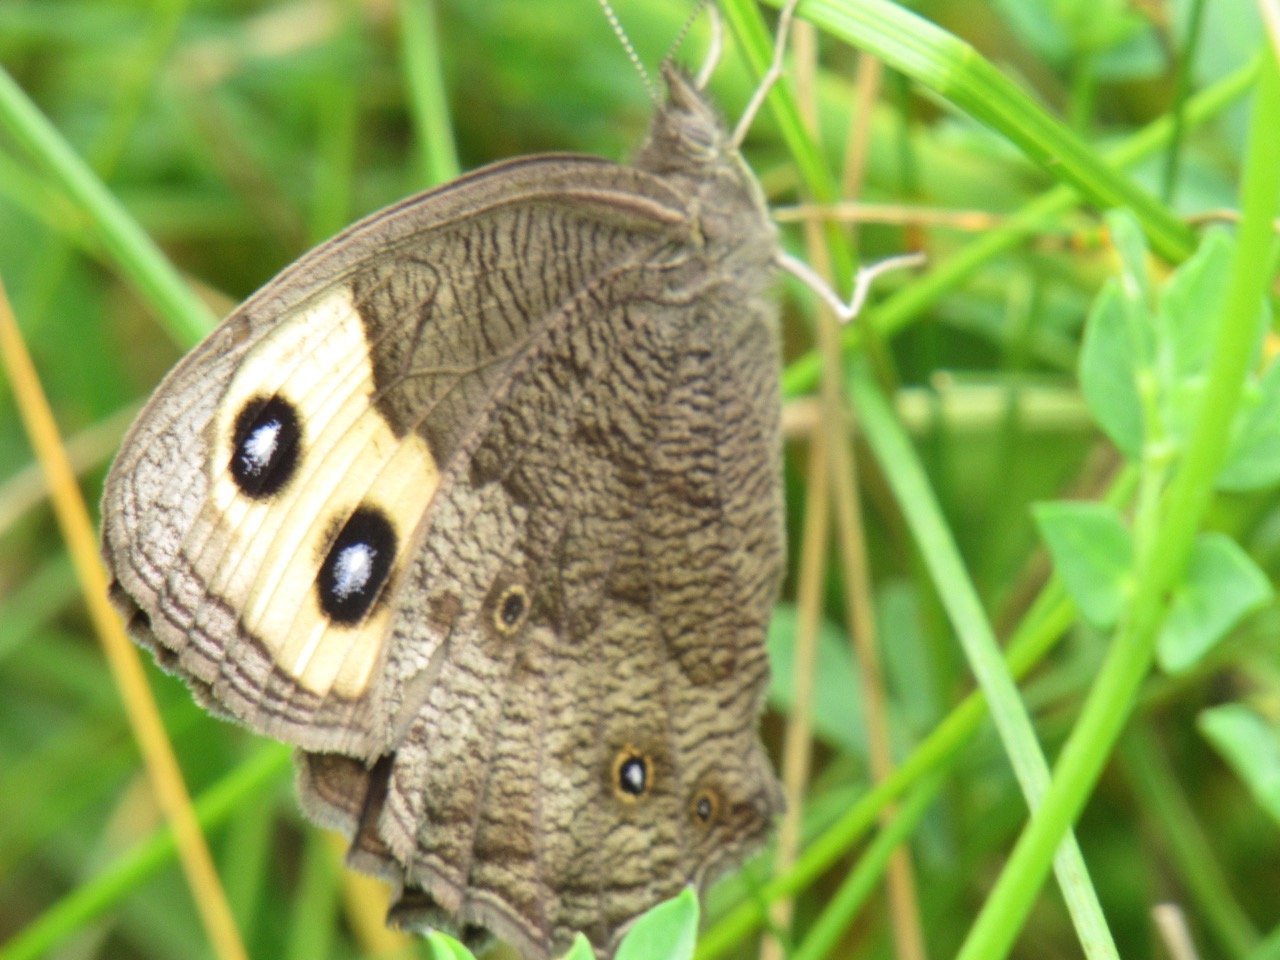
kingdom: Animalia
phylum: Arthropoda
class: Insecta
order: Lepidoptera
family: Nymphalidae
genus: Cercyonis
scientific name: Cercyonis pegala
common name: Common Wood-Nymph
